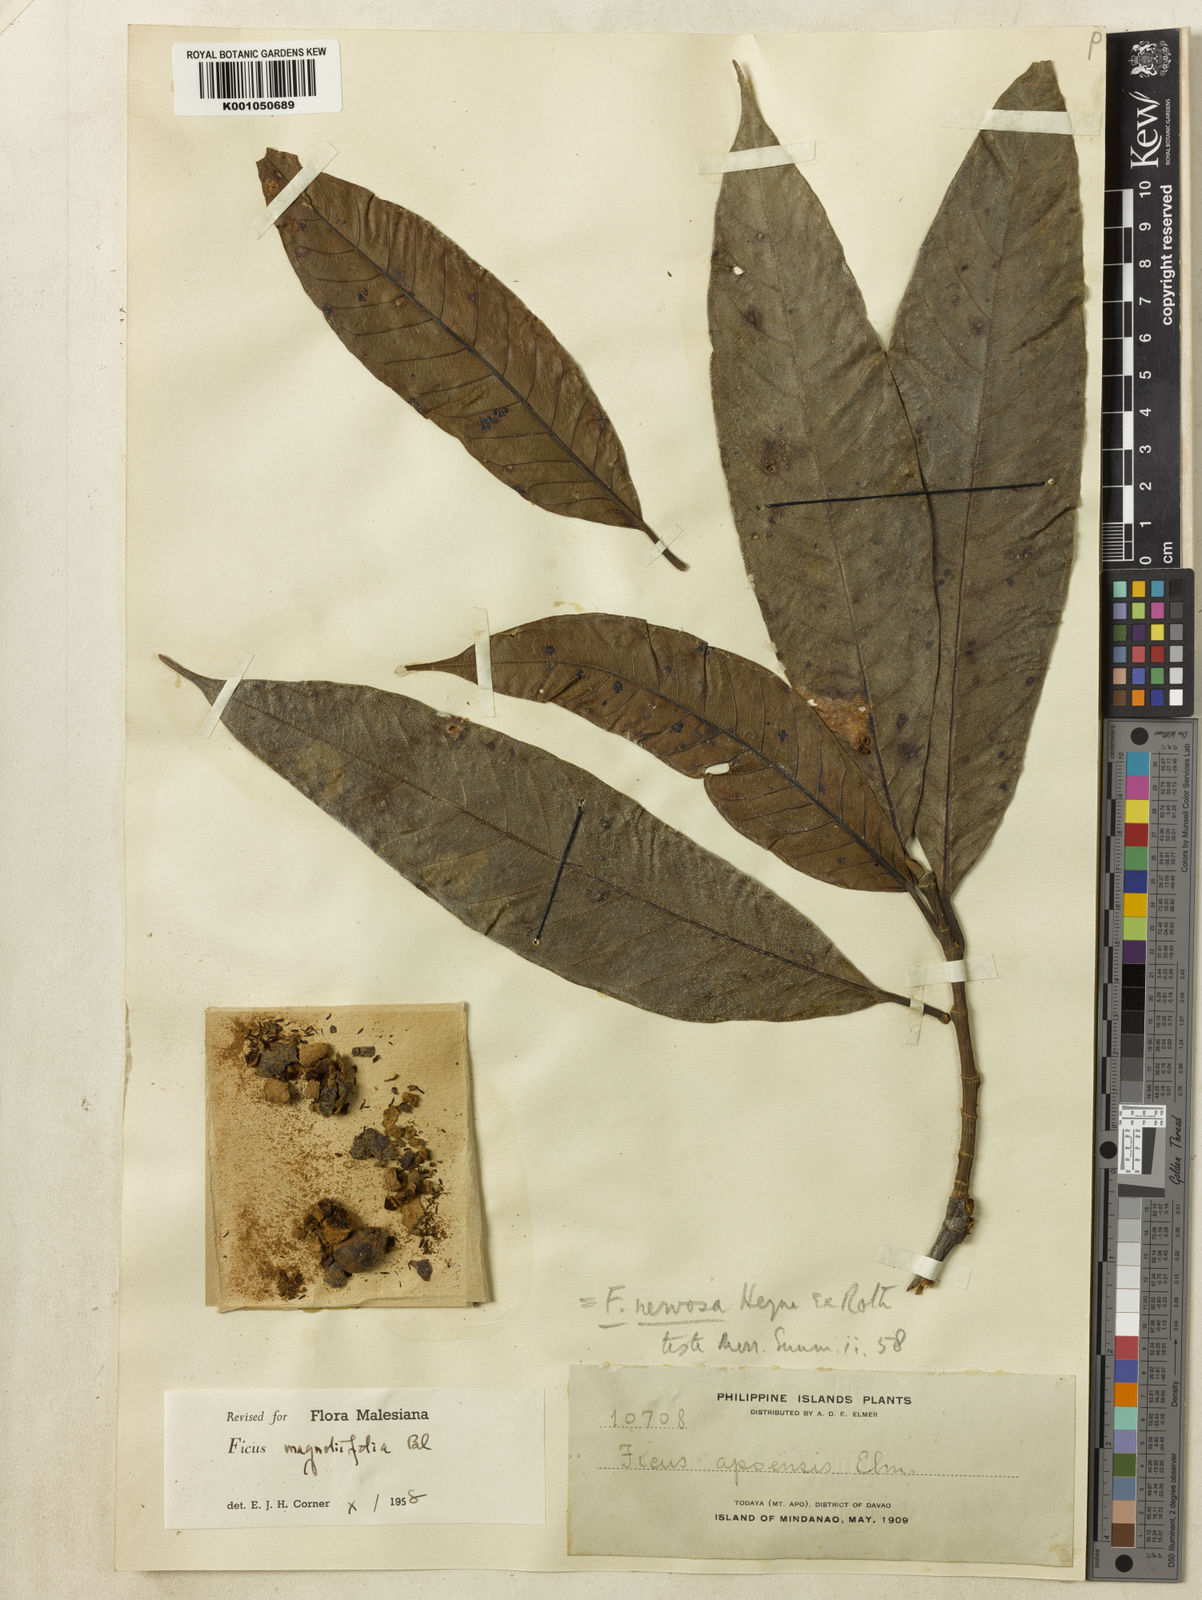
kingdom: Plantae
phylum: Tracheophyta
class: Magnoliopsida
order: Rosales
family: Moraceae
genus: Ficus
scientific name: Ficus magnoliifolia
